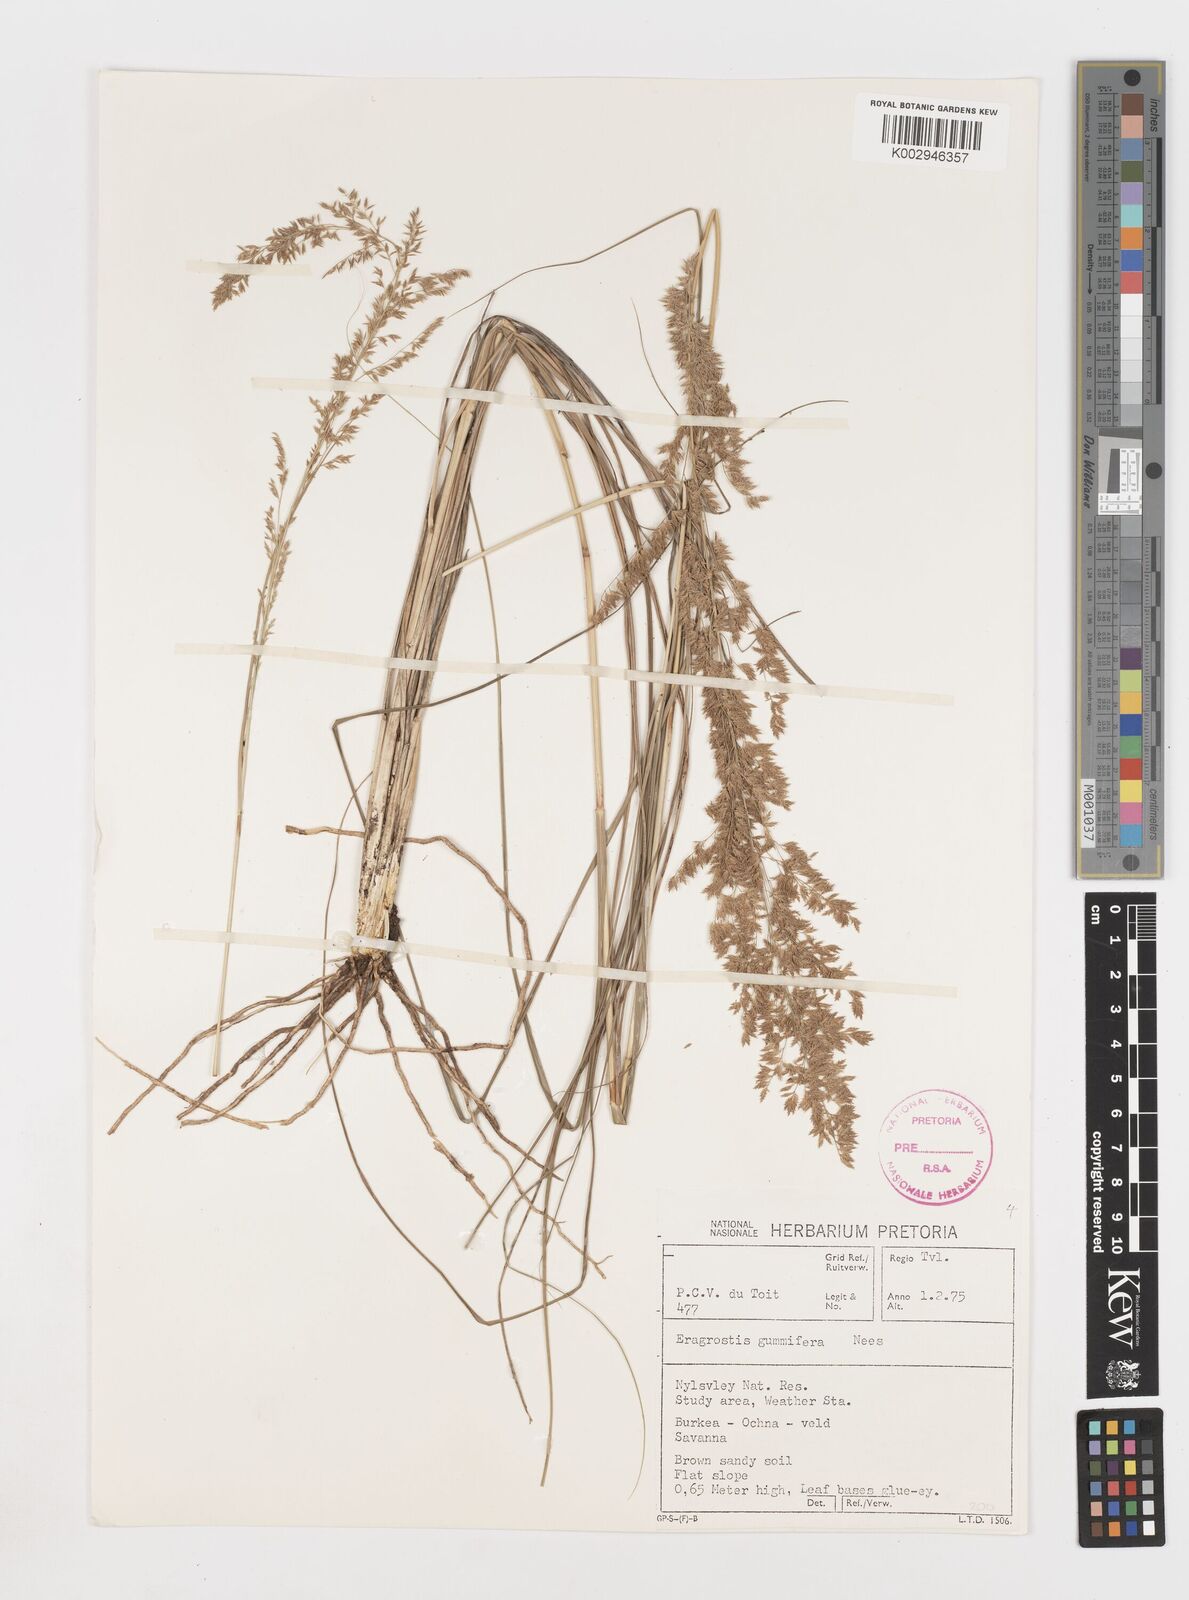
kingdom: Plantae
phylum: Tracheophyta
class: Liliopsida
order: Poales
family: Poaceae
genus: Eragrostis
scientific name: Eragrostis gummiflua
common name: Gum grass
